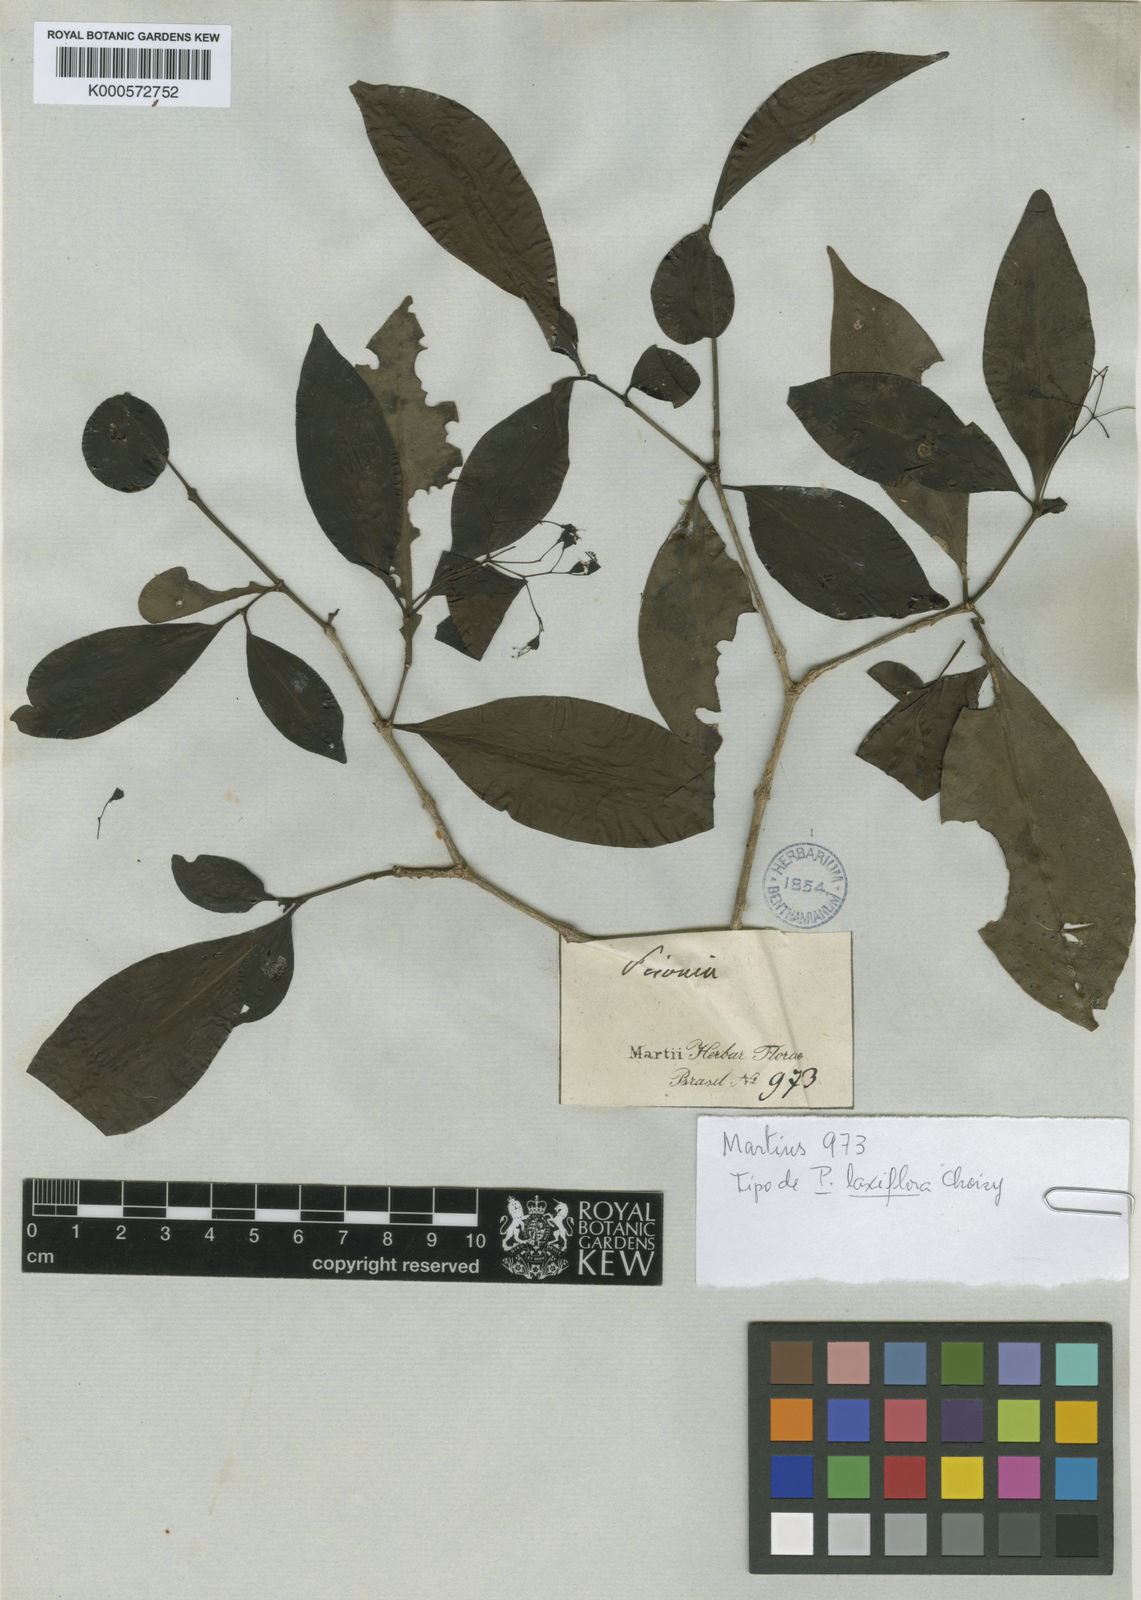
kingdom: Plantae
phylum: Tracheophyta
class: Magnoliopsida
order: Caryophyllales
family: Nyctaginaceae
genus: Guapira
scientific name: Guapira opposita
